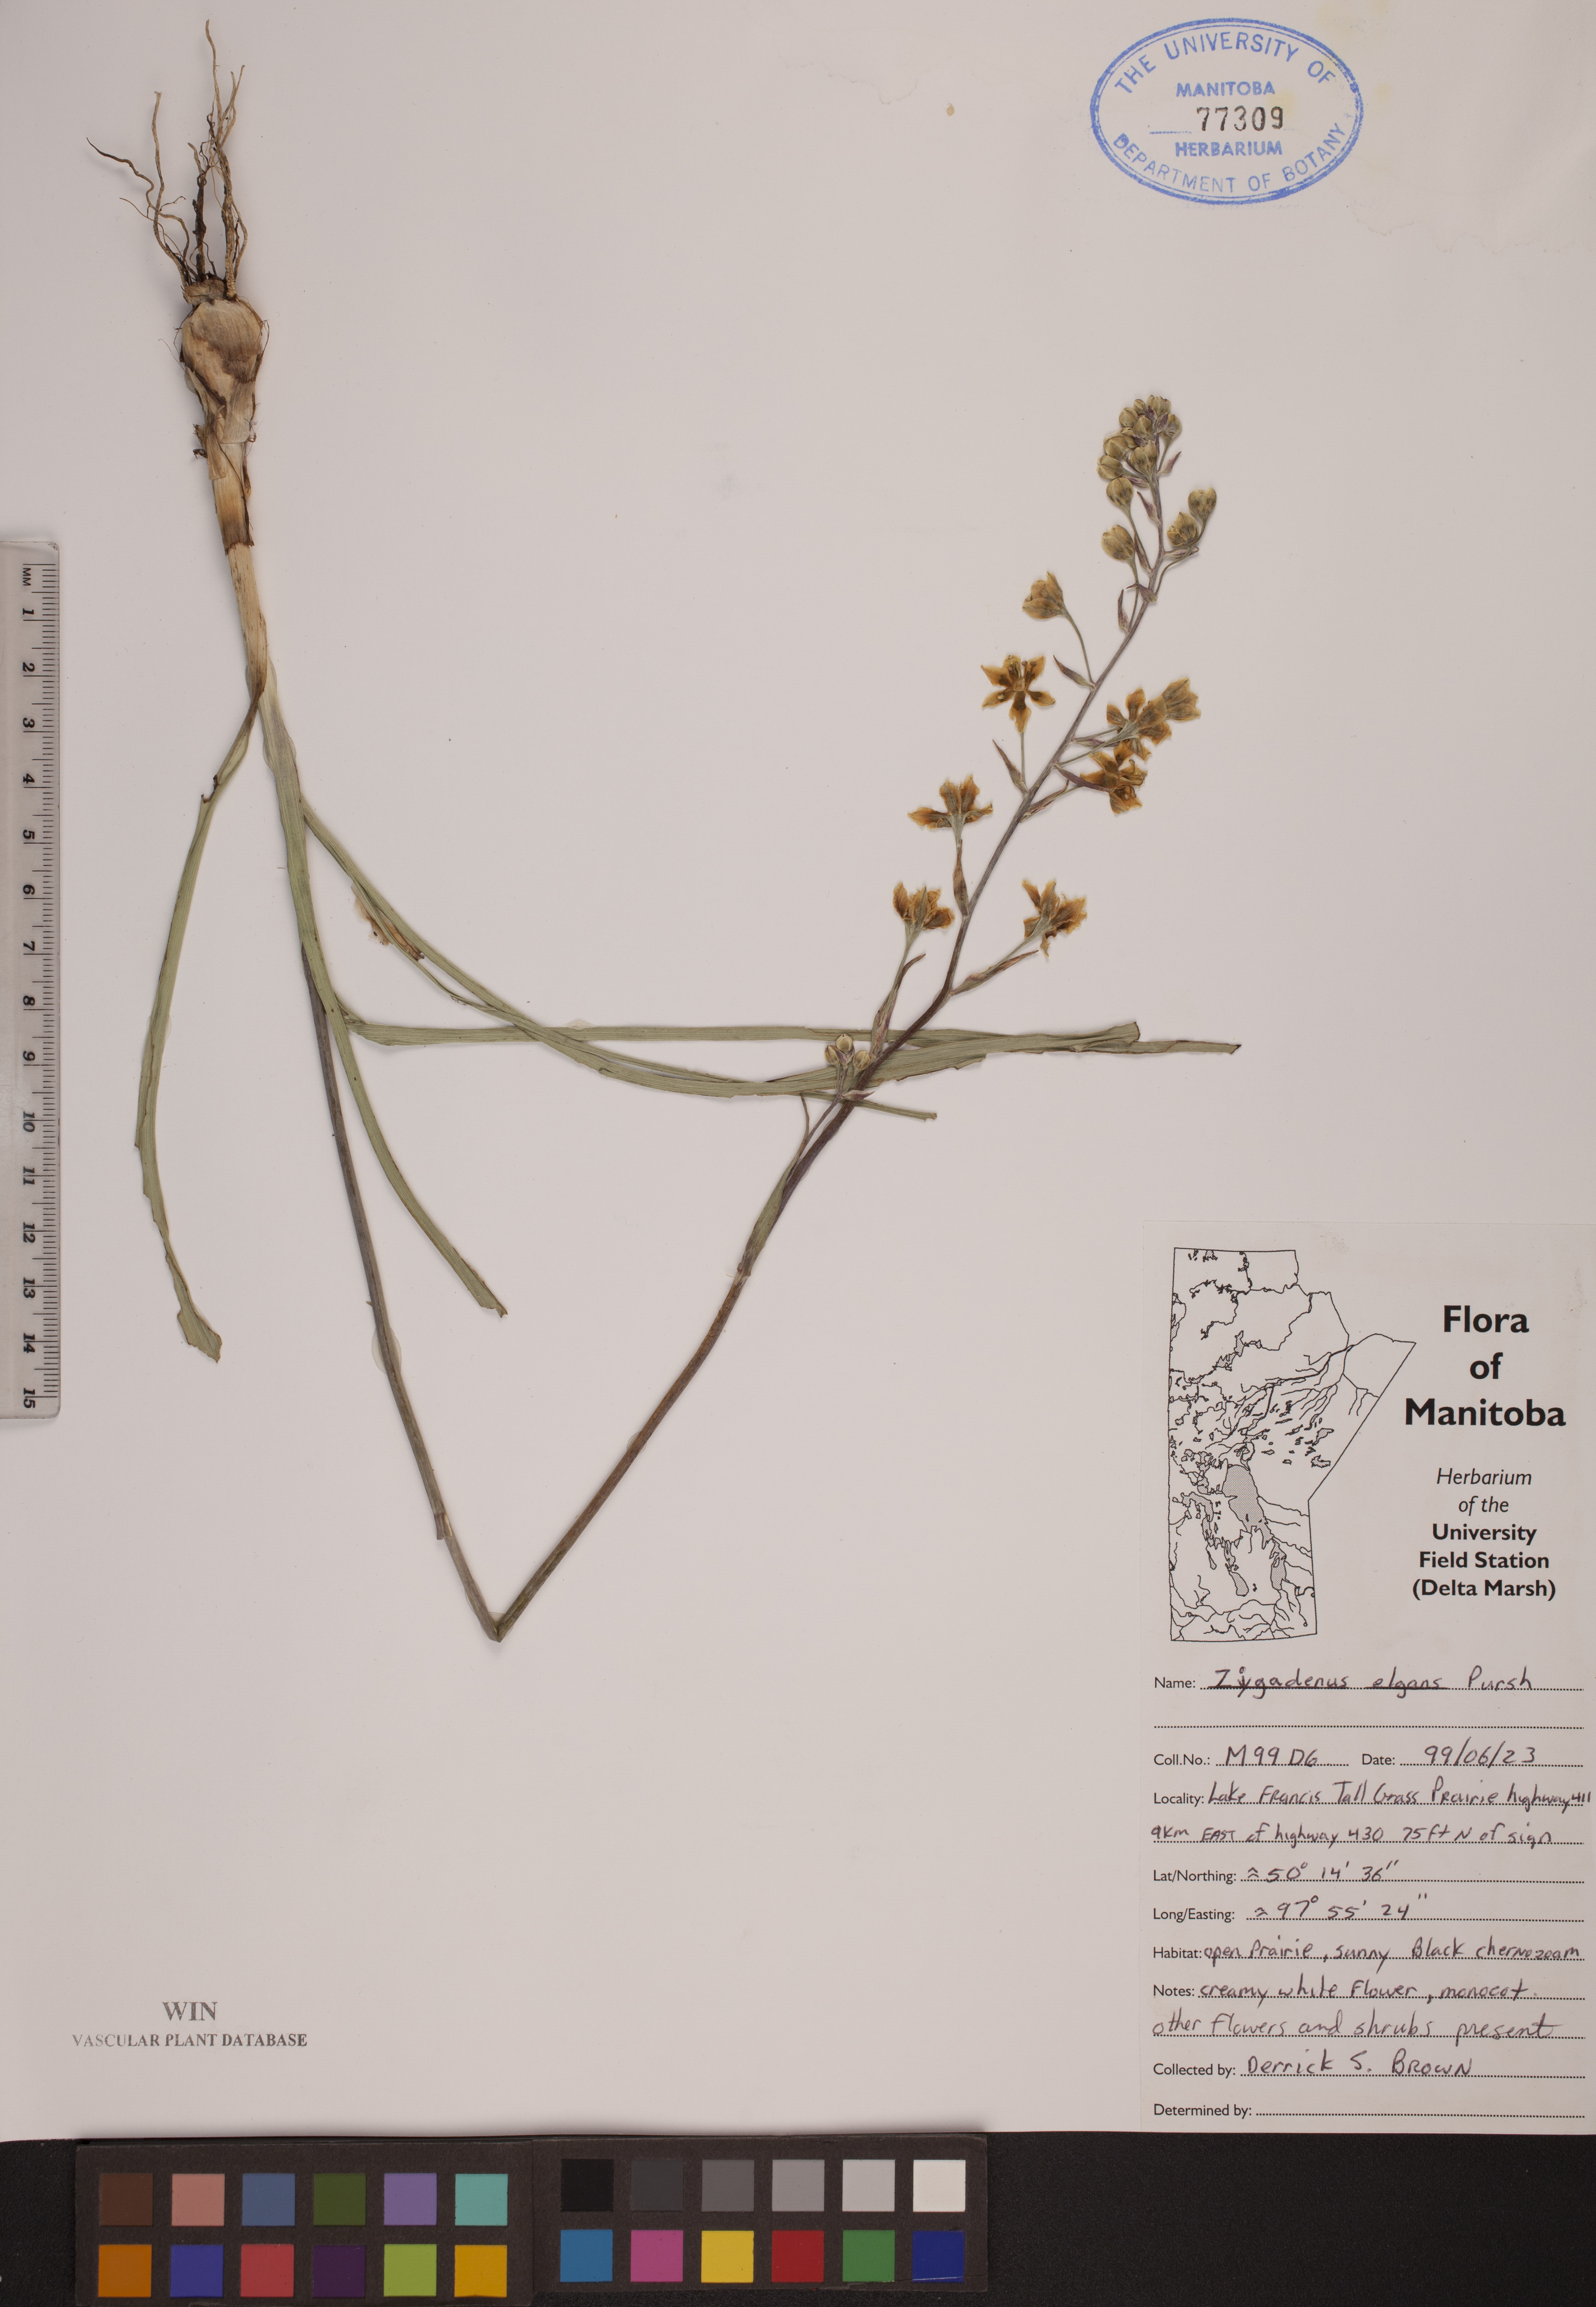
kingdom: Plantae
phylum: Tracheophyta
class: Liliopsida
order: Liliales
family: Melanthiaceae
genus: Anticlea
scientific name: Anticlea elegans
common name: Mountain death camas
